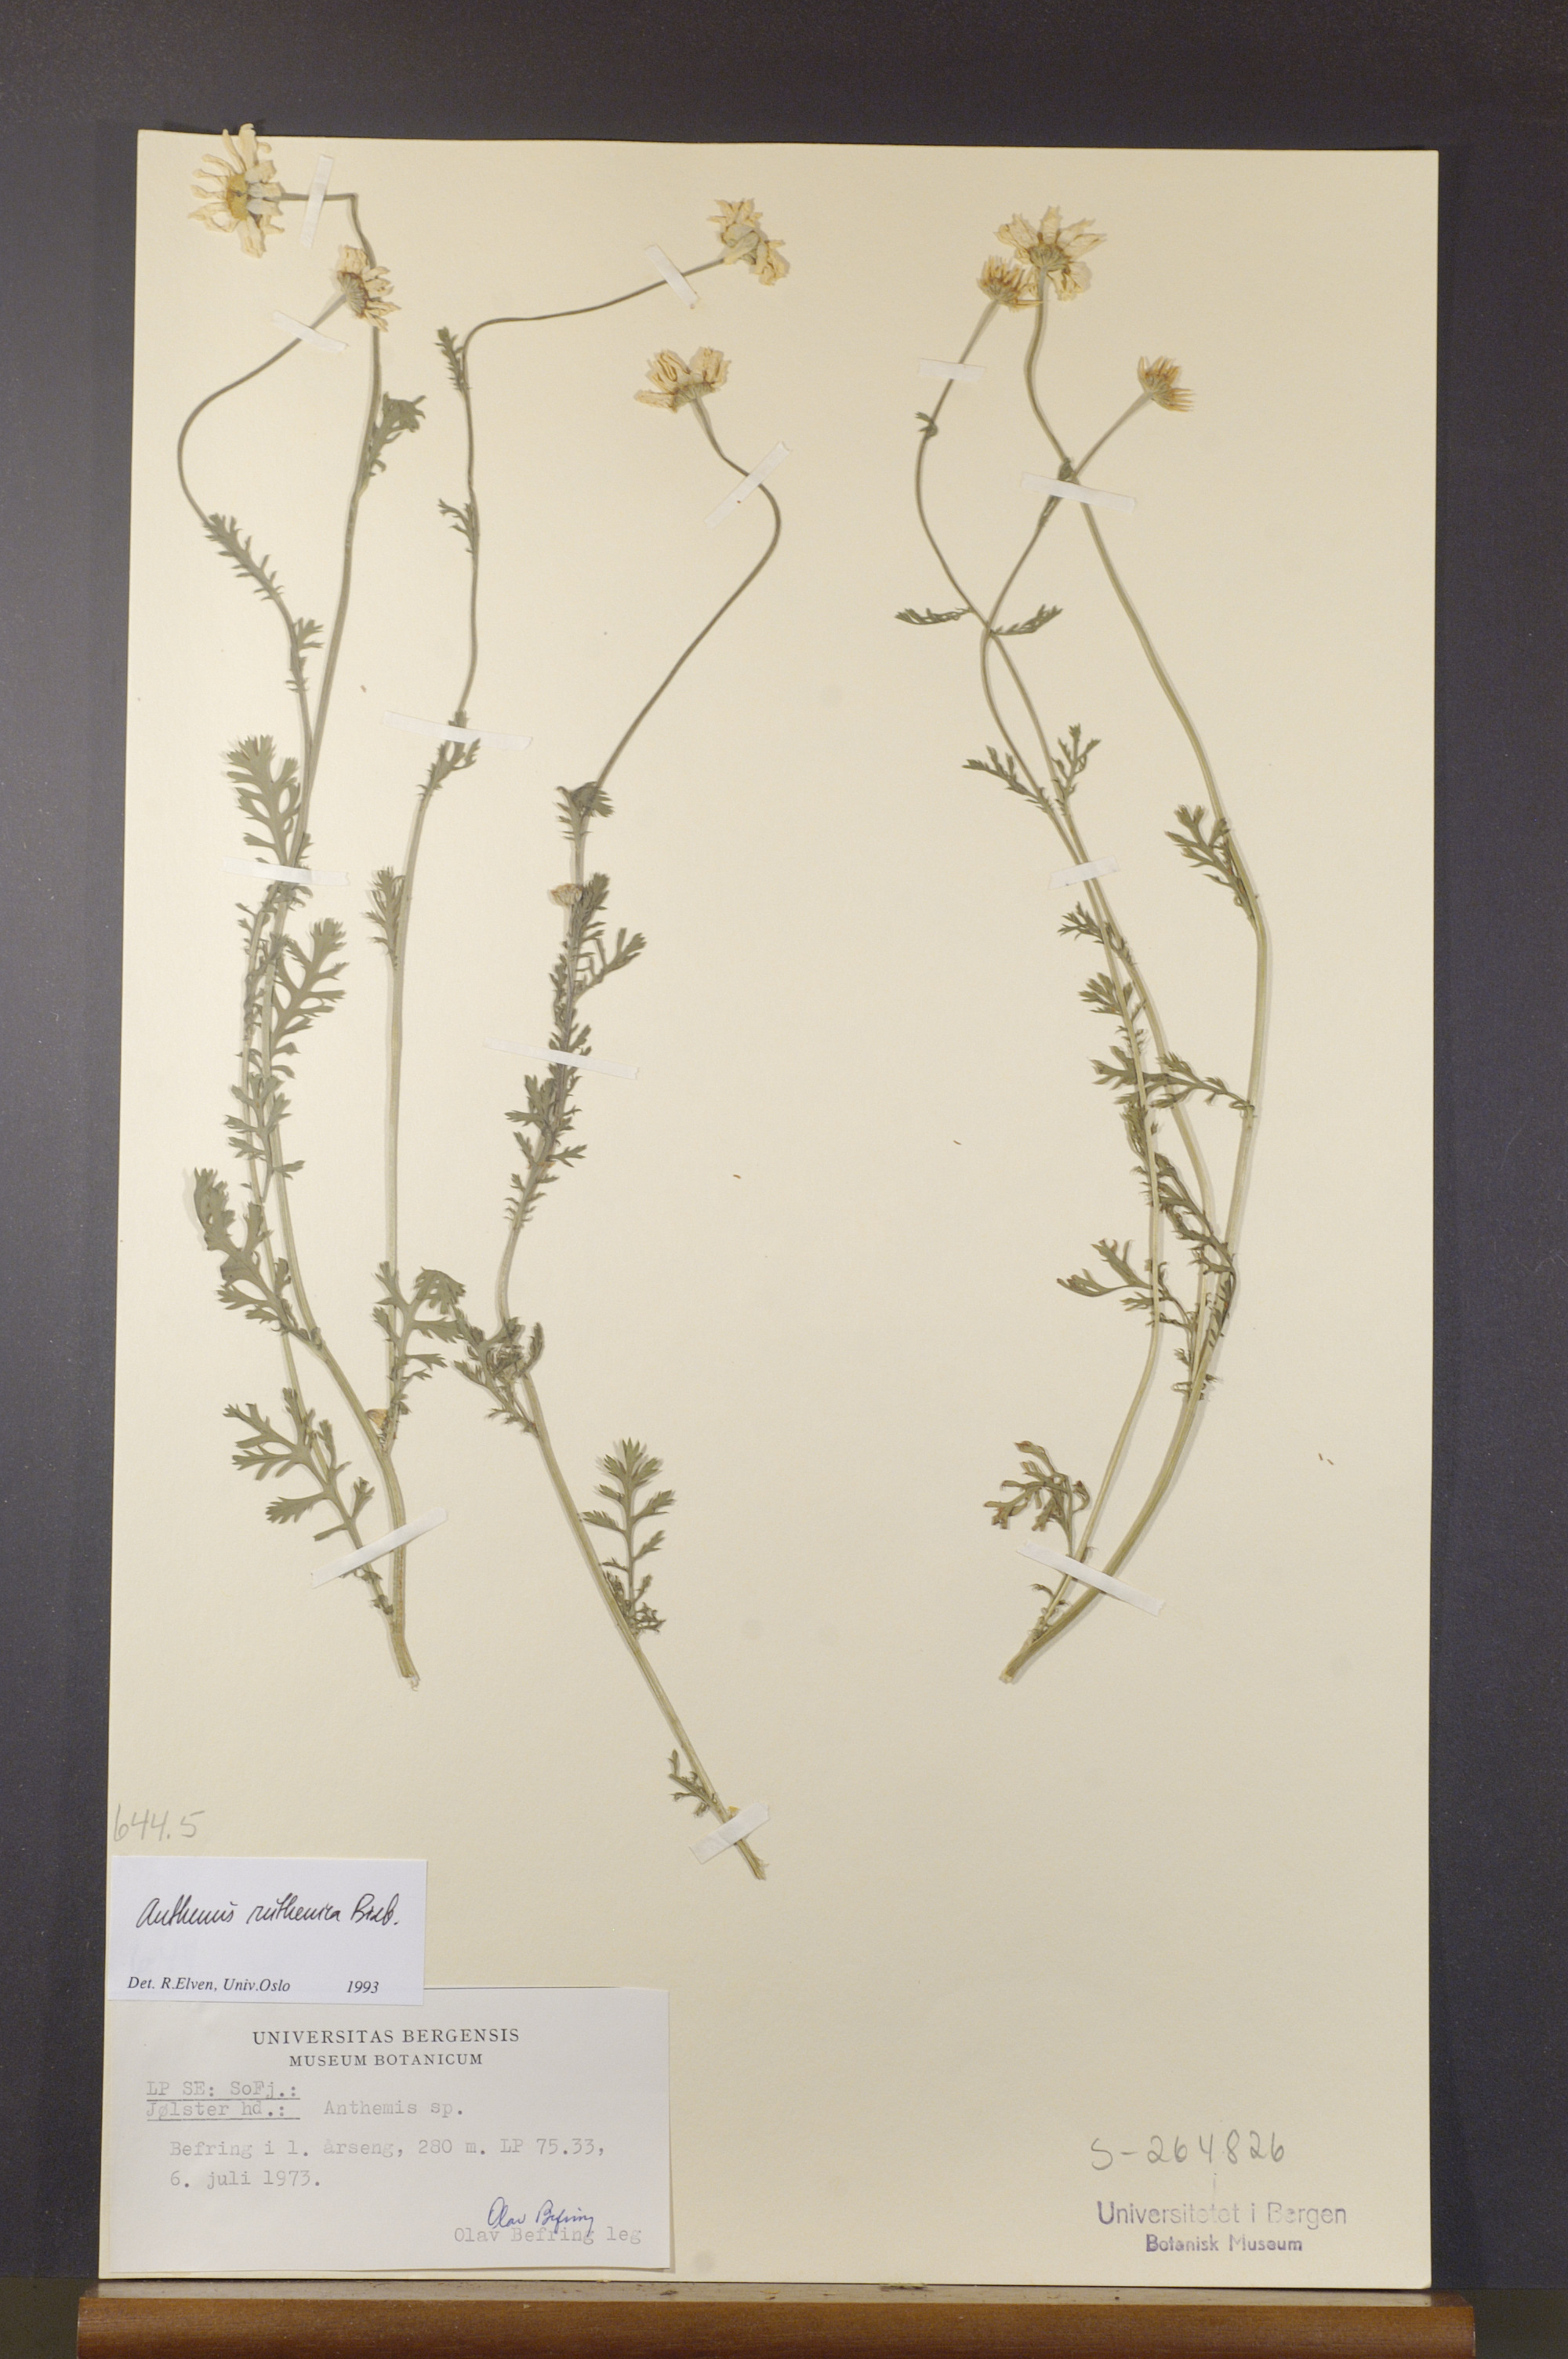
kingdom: Plantae
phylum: Tracheophyta
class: Magnoliopsida
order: Asterales
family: Asteraceae
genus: Anthemis
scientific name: Anthemis ruthenica
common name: Eastern chamomile
